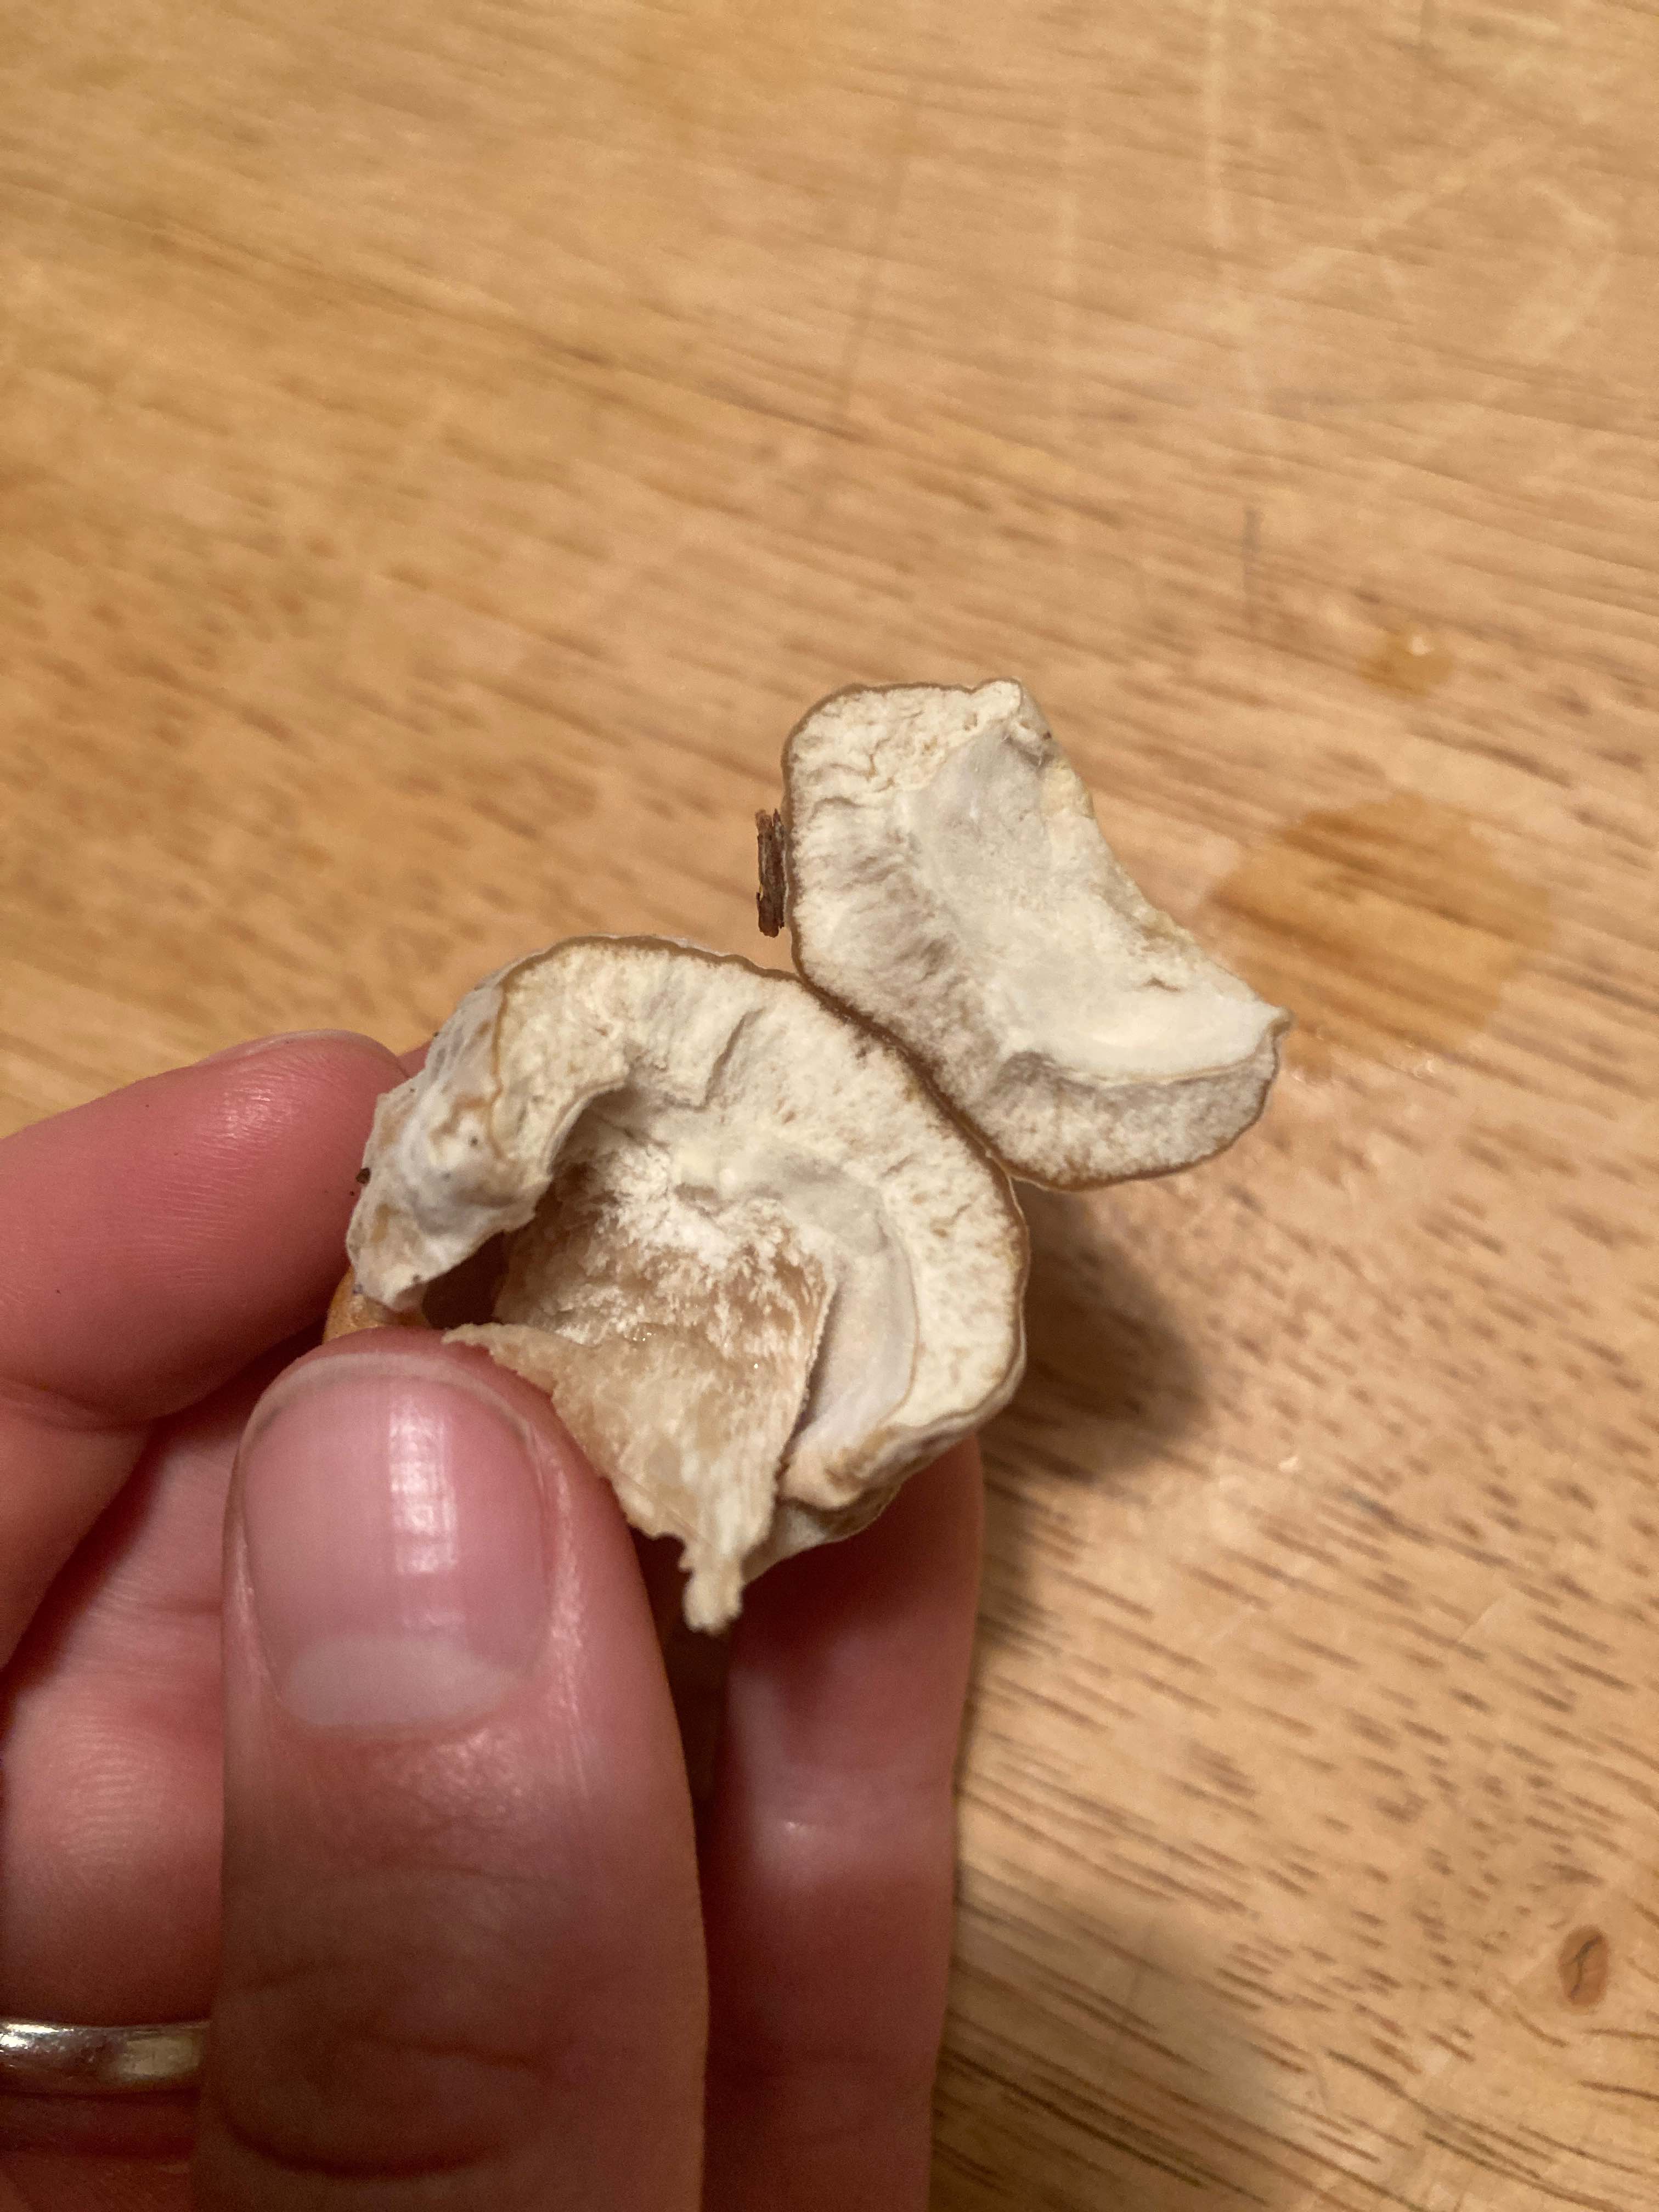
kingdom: Fungi
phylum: Basidiomycota
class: Agaricomycetes
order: Boletales
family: Boletaceae
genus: Boletus
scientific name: Boletus edulis
